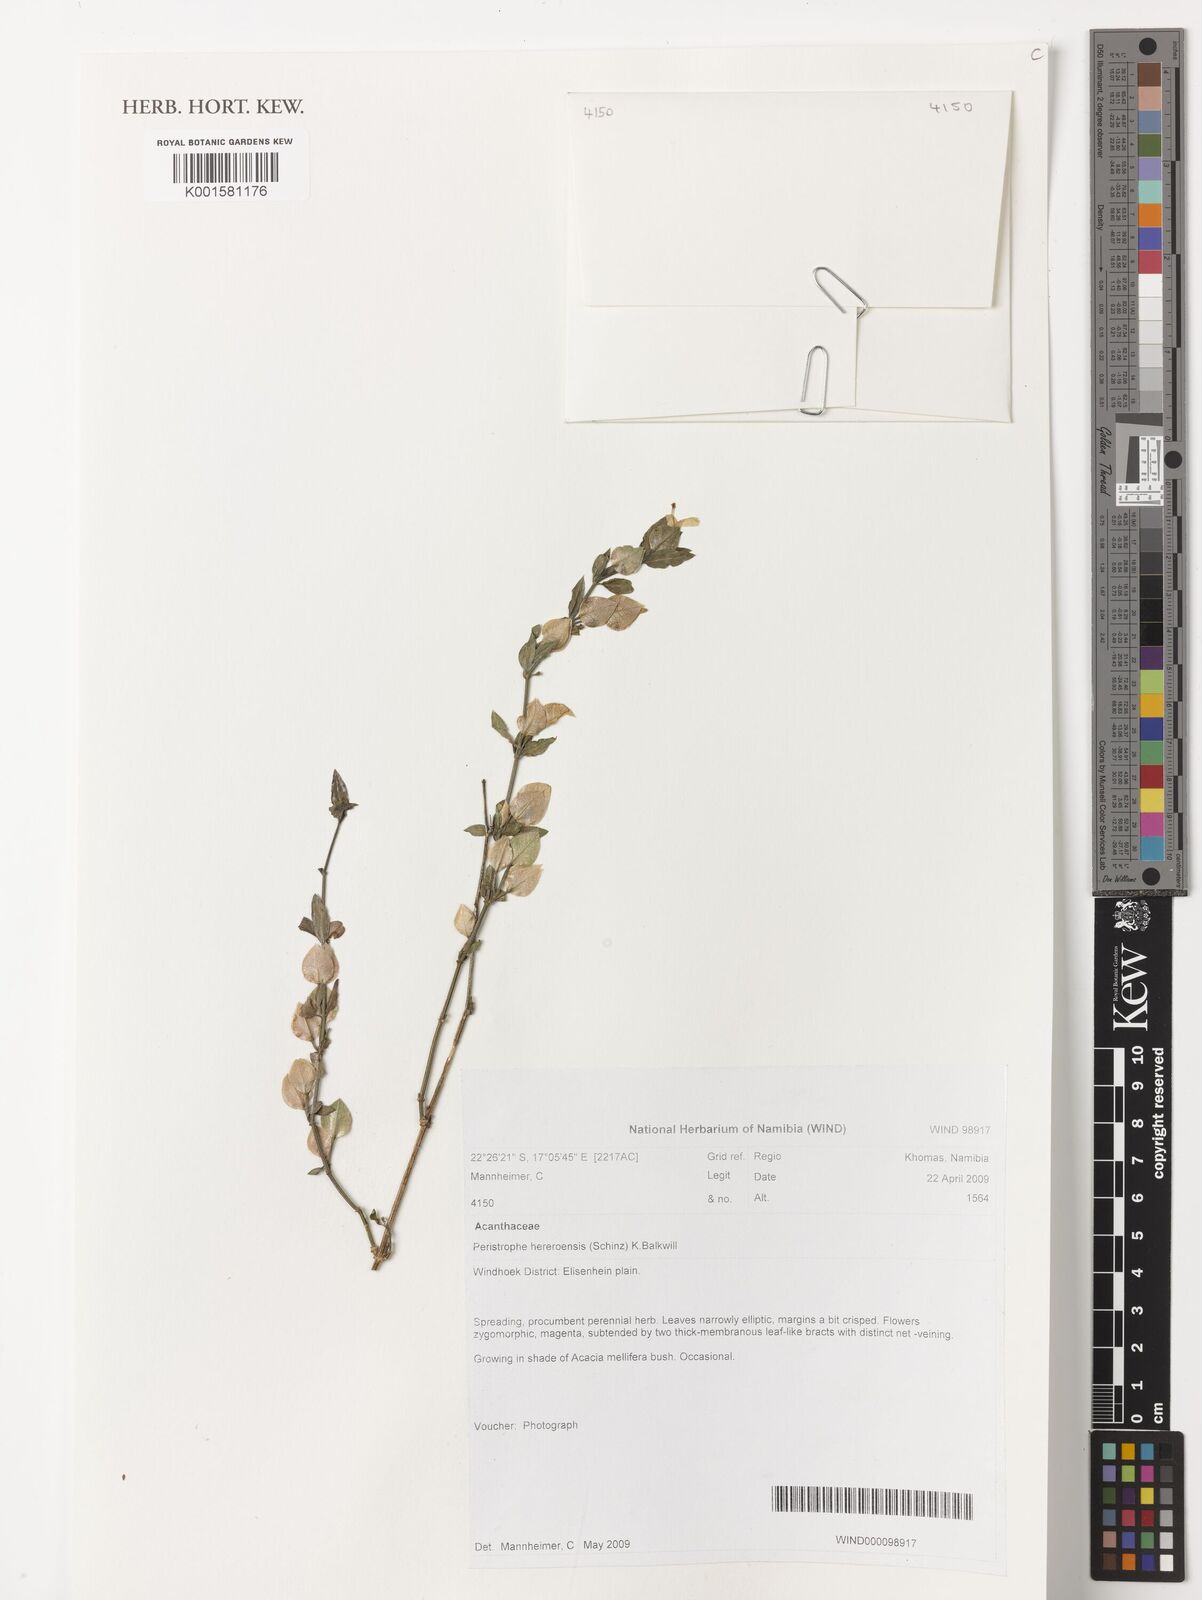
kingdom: Plantae
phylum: Tracheophyta
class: Magnoliopsida
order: Lamiales
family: Acanthaceae
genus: Dicliptera
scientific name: Dicliptera hereroensis
